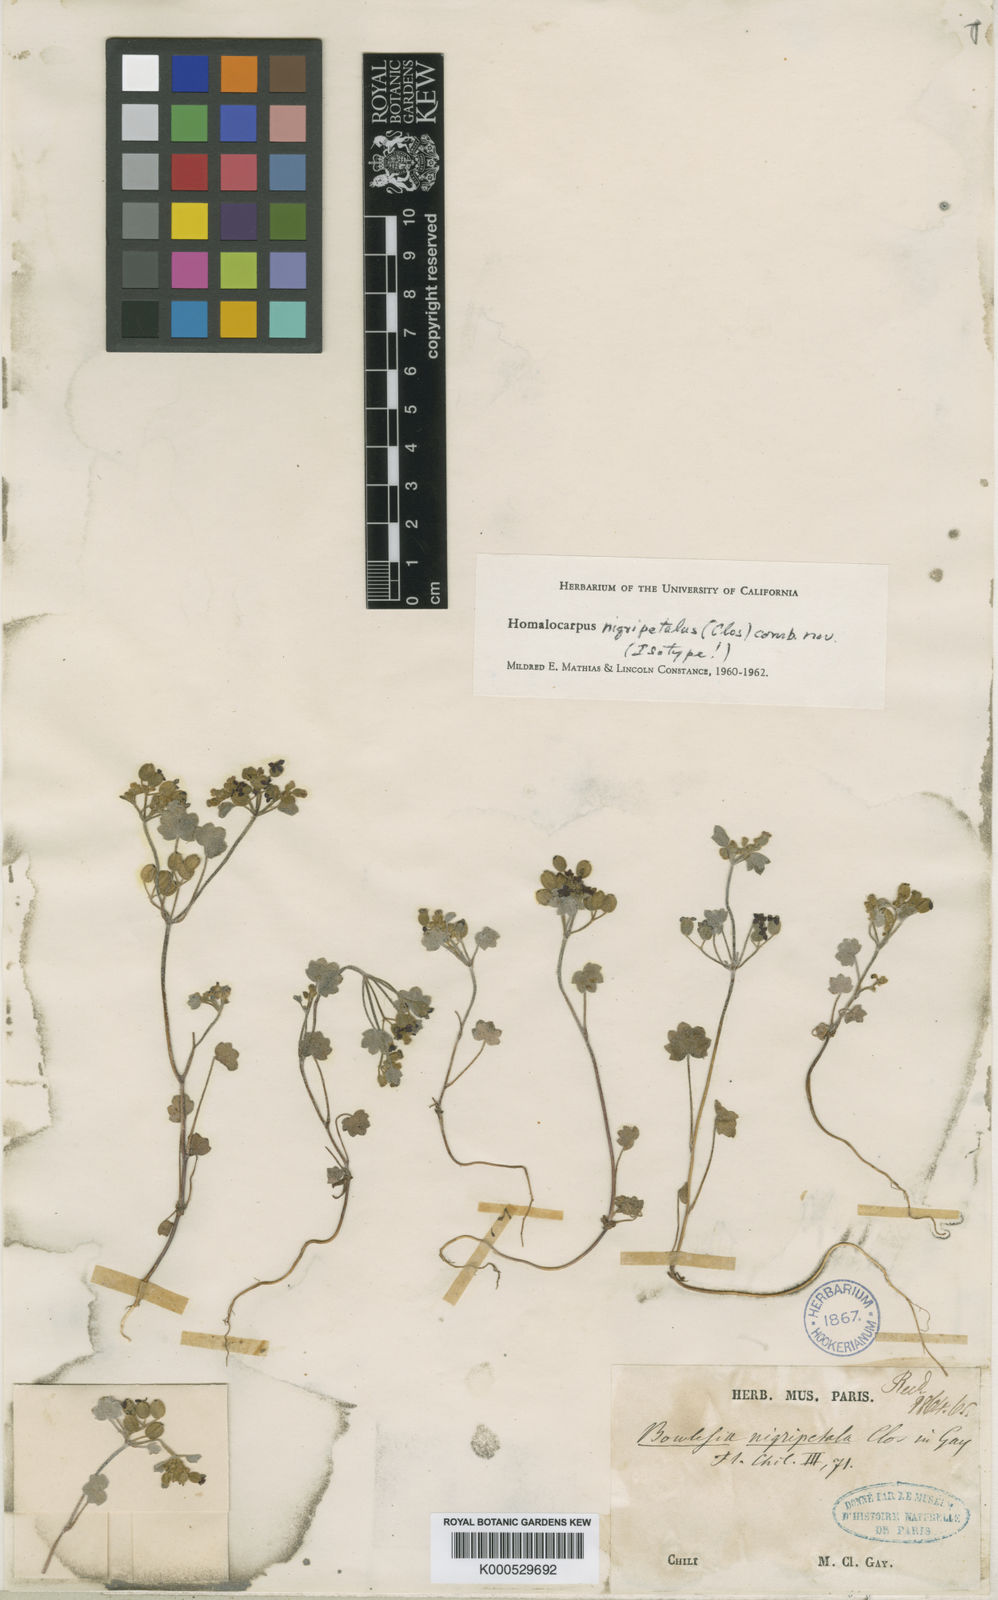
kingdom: Plantae
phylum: Tracheophyta
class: Magnoliopsida
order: Apiales
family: Apiaceae
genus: Homalocarpus
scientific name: Homalocarpus nigripetalus
